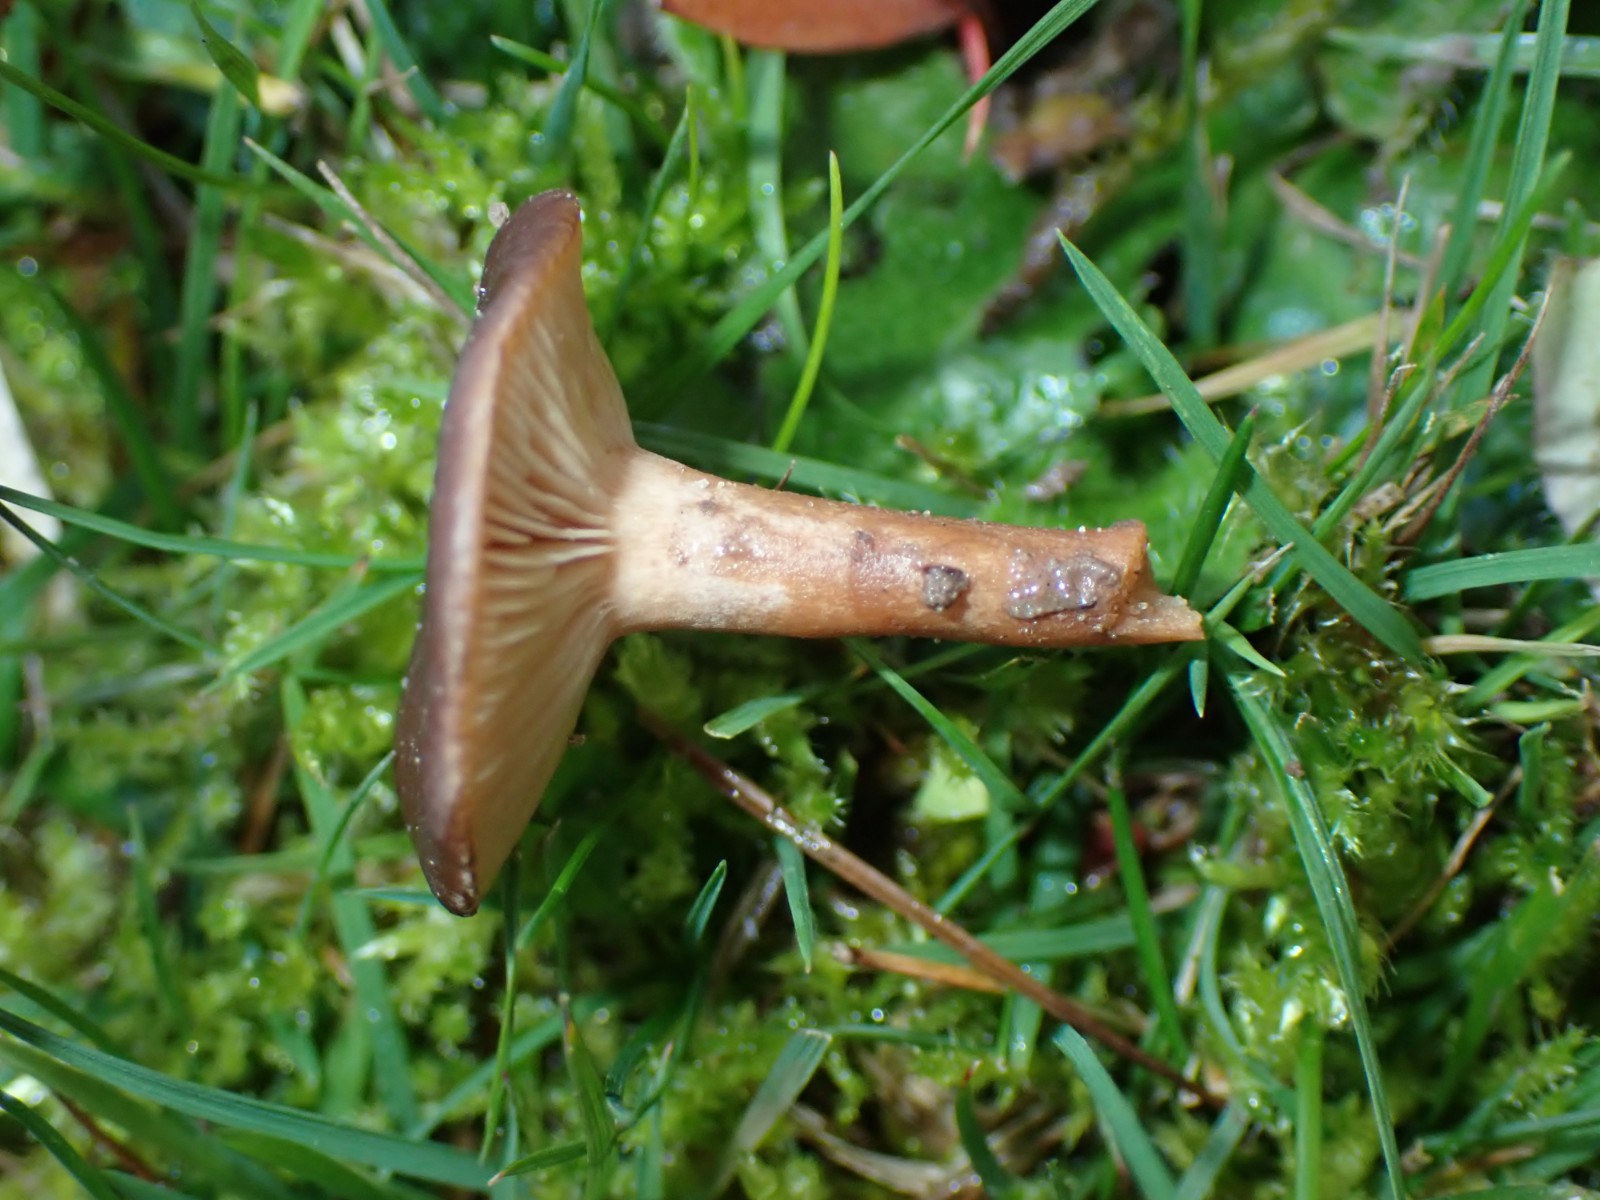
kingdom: Fungi
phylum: Basidiomycota
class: Agaricomycetes
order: Russulales
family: Russulaceae
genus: Lactarius
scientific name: Lactarius serifluus
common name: tæge-mælkehat
